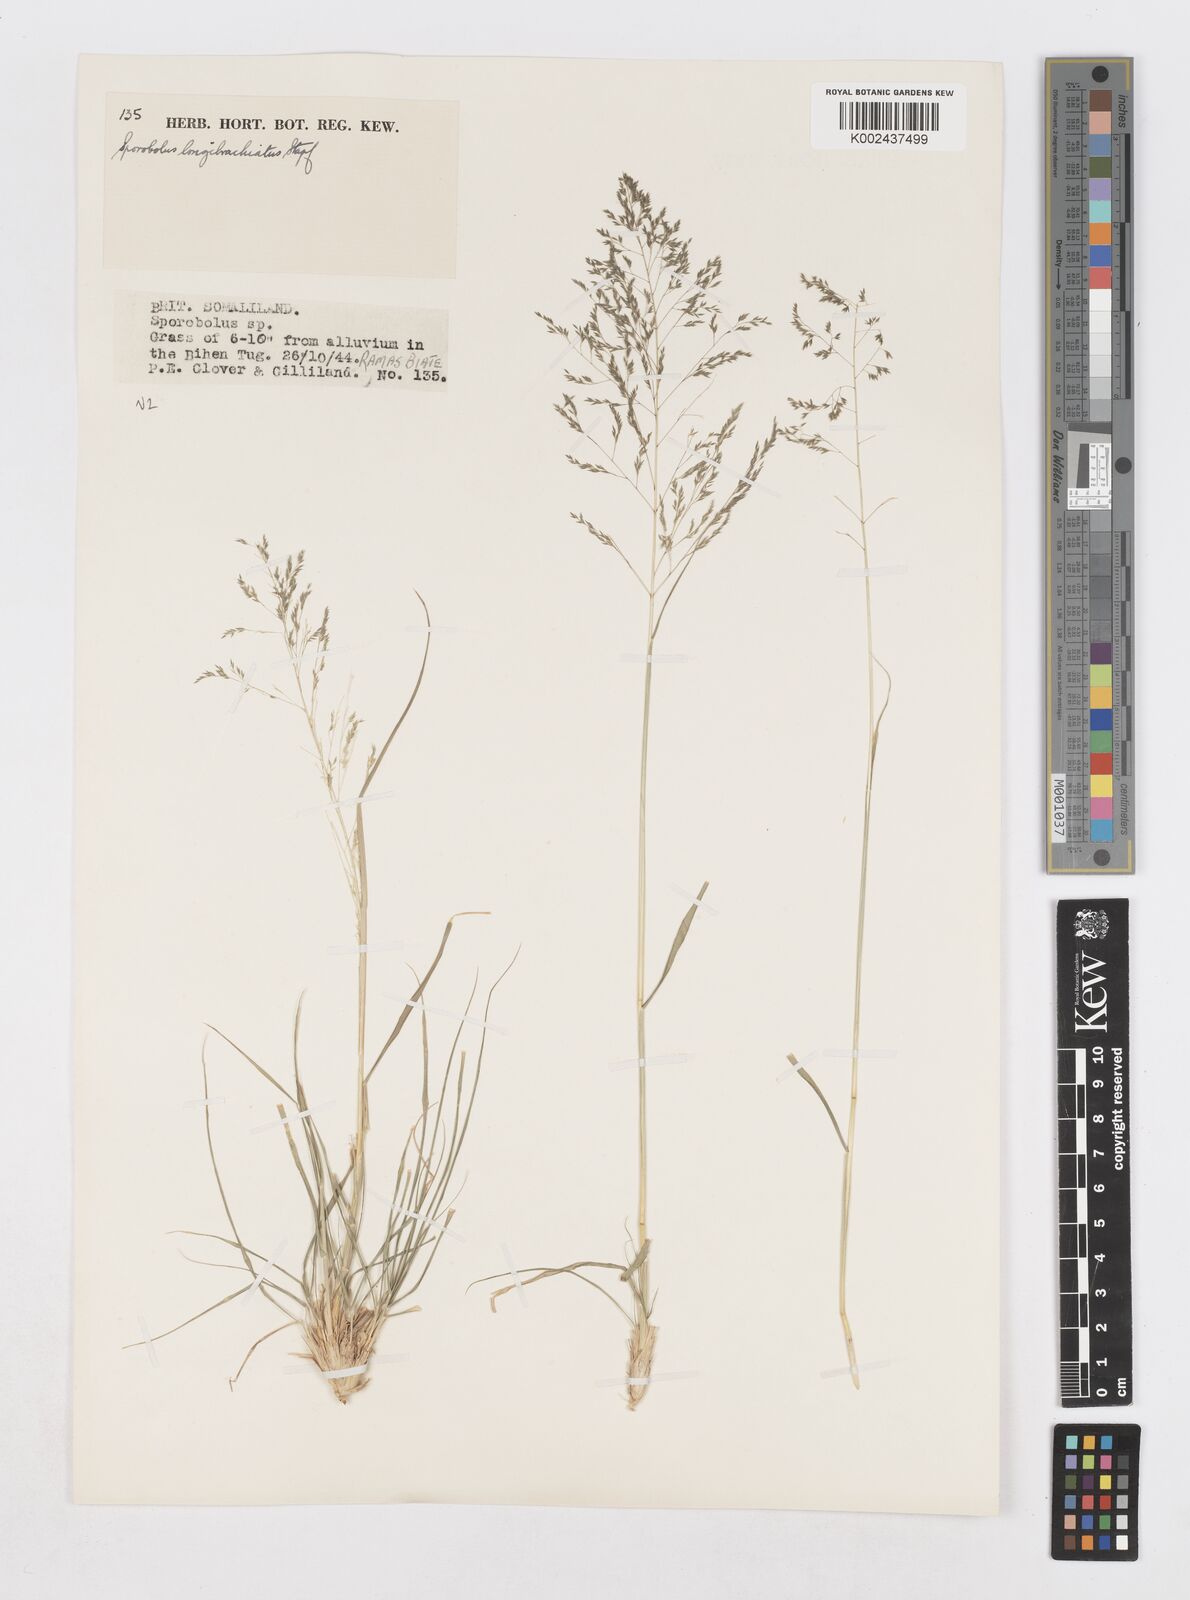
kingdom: Plantae
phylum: Tracheophyta
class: Liliopsida
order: Poales
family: Poaceae
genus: Sporobolus
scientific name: Sporobolus nervosus
